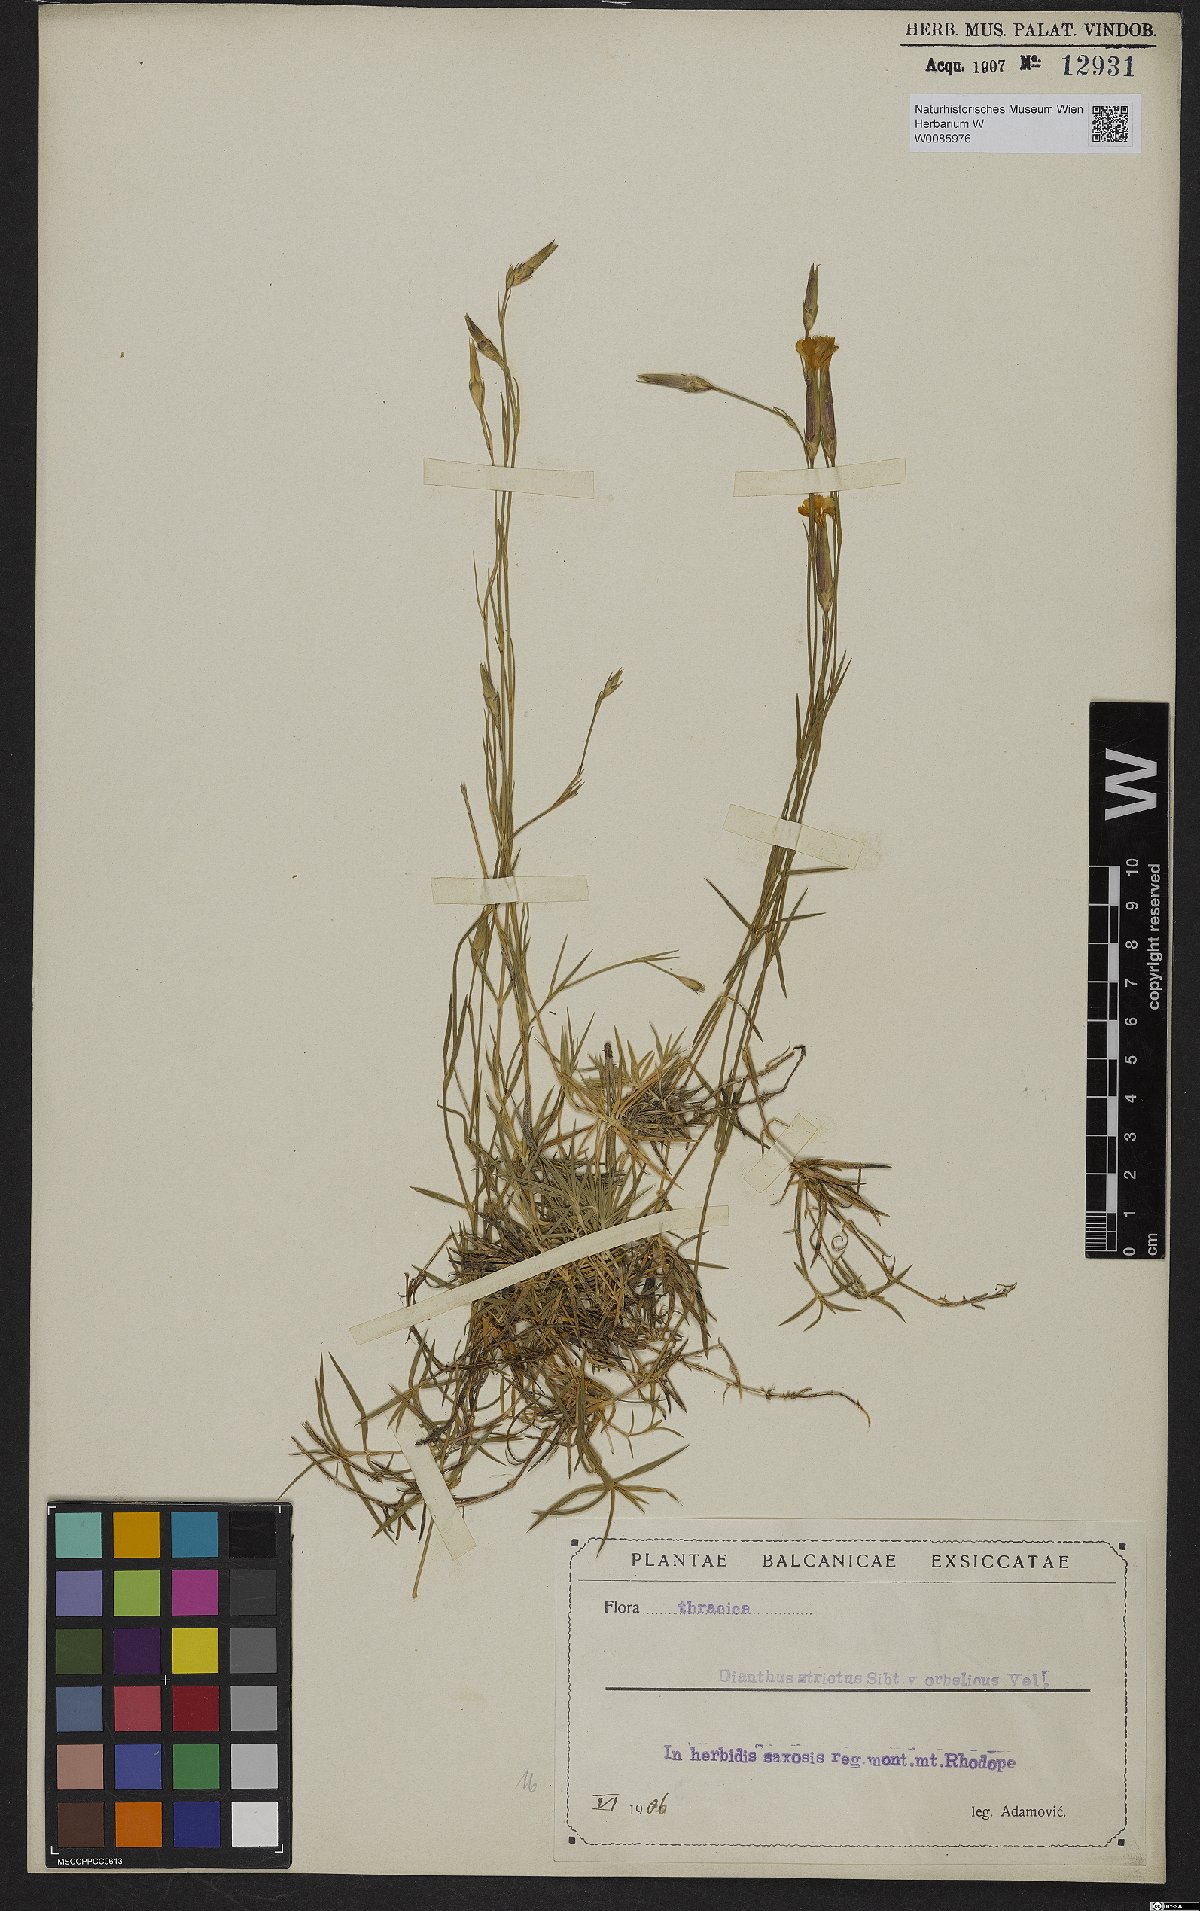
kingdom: Plantae
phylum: Tracheophyta
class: Magnoliopsida
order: Caryophyllales
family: Caryophyllaceae
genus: Dianthus
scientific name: Dianthus petraeus
